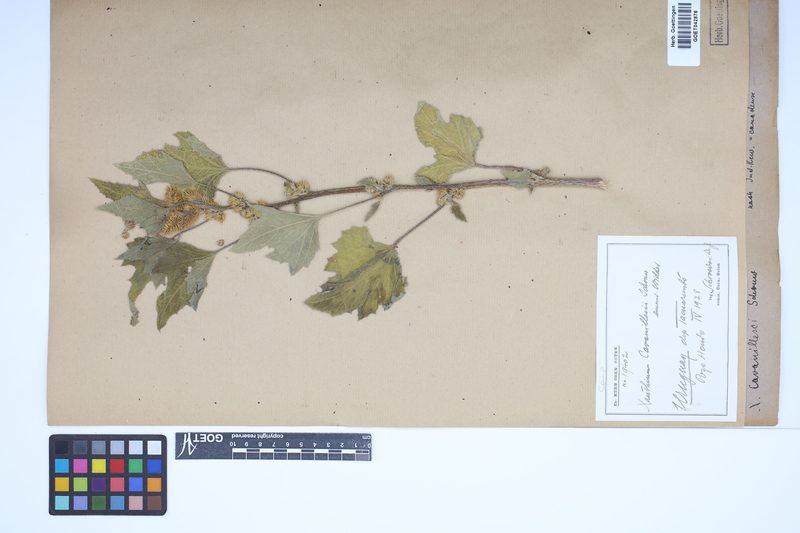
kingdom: Plantae
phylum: Tracheophyta
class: Magnoliopsida
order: Asterales
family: Asteraceae
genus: Xanthium
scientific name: Xanthium orientale
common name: Californian burr
